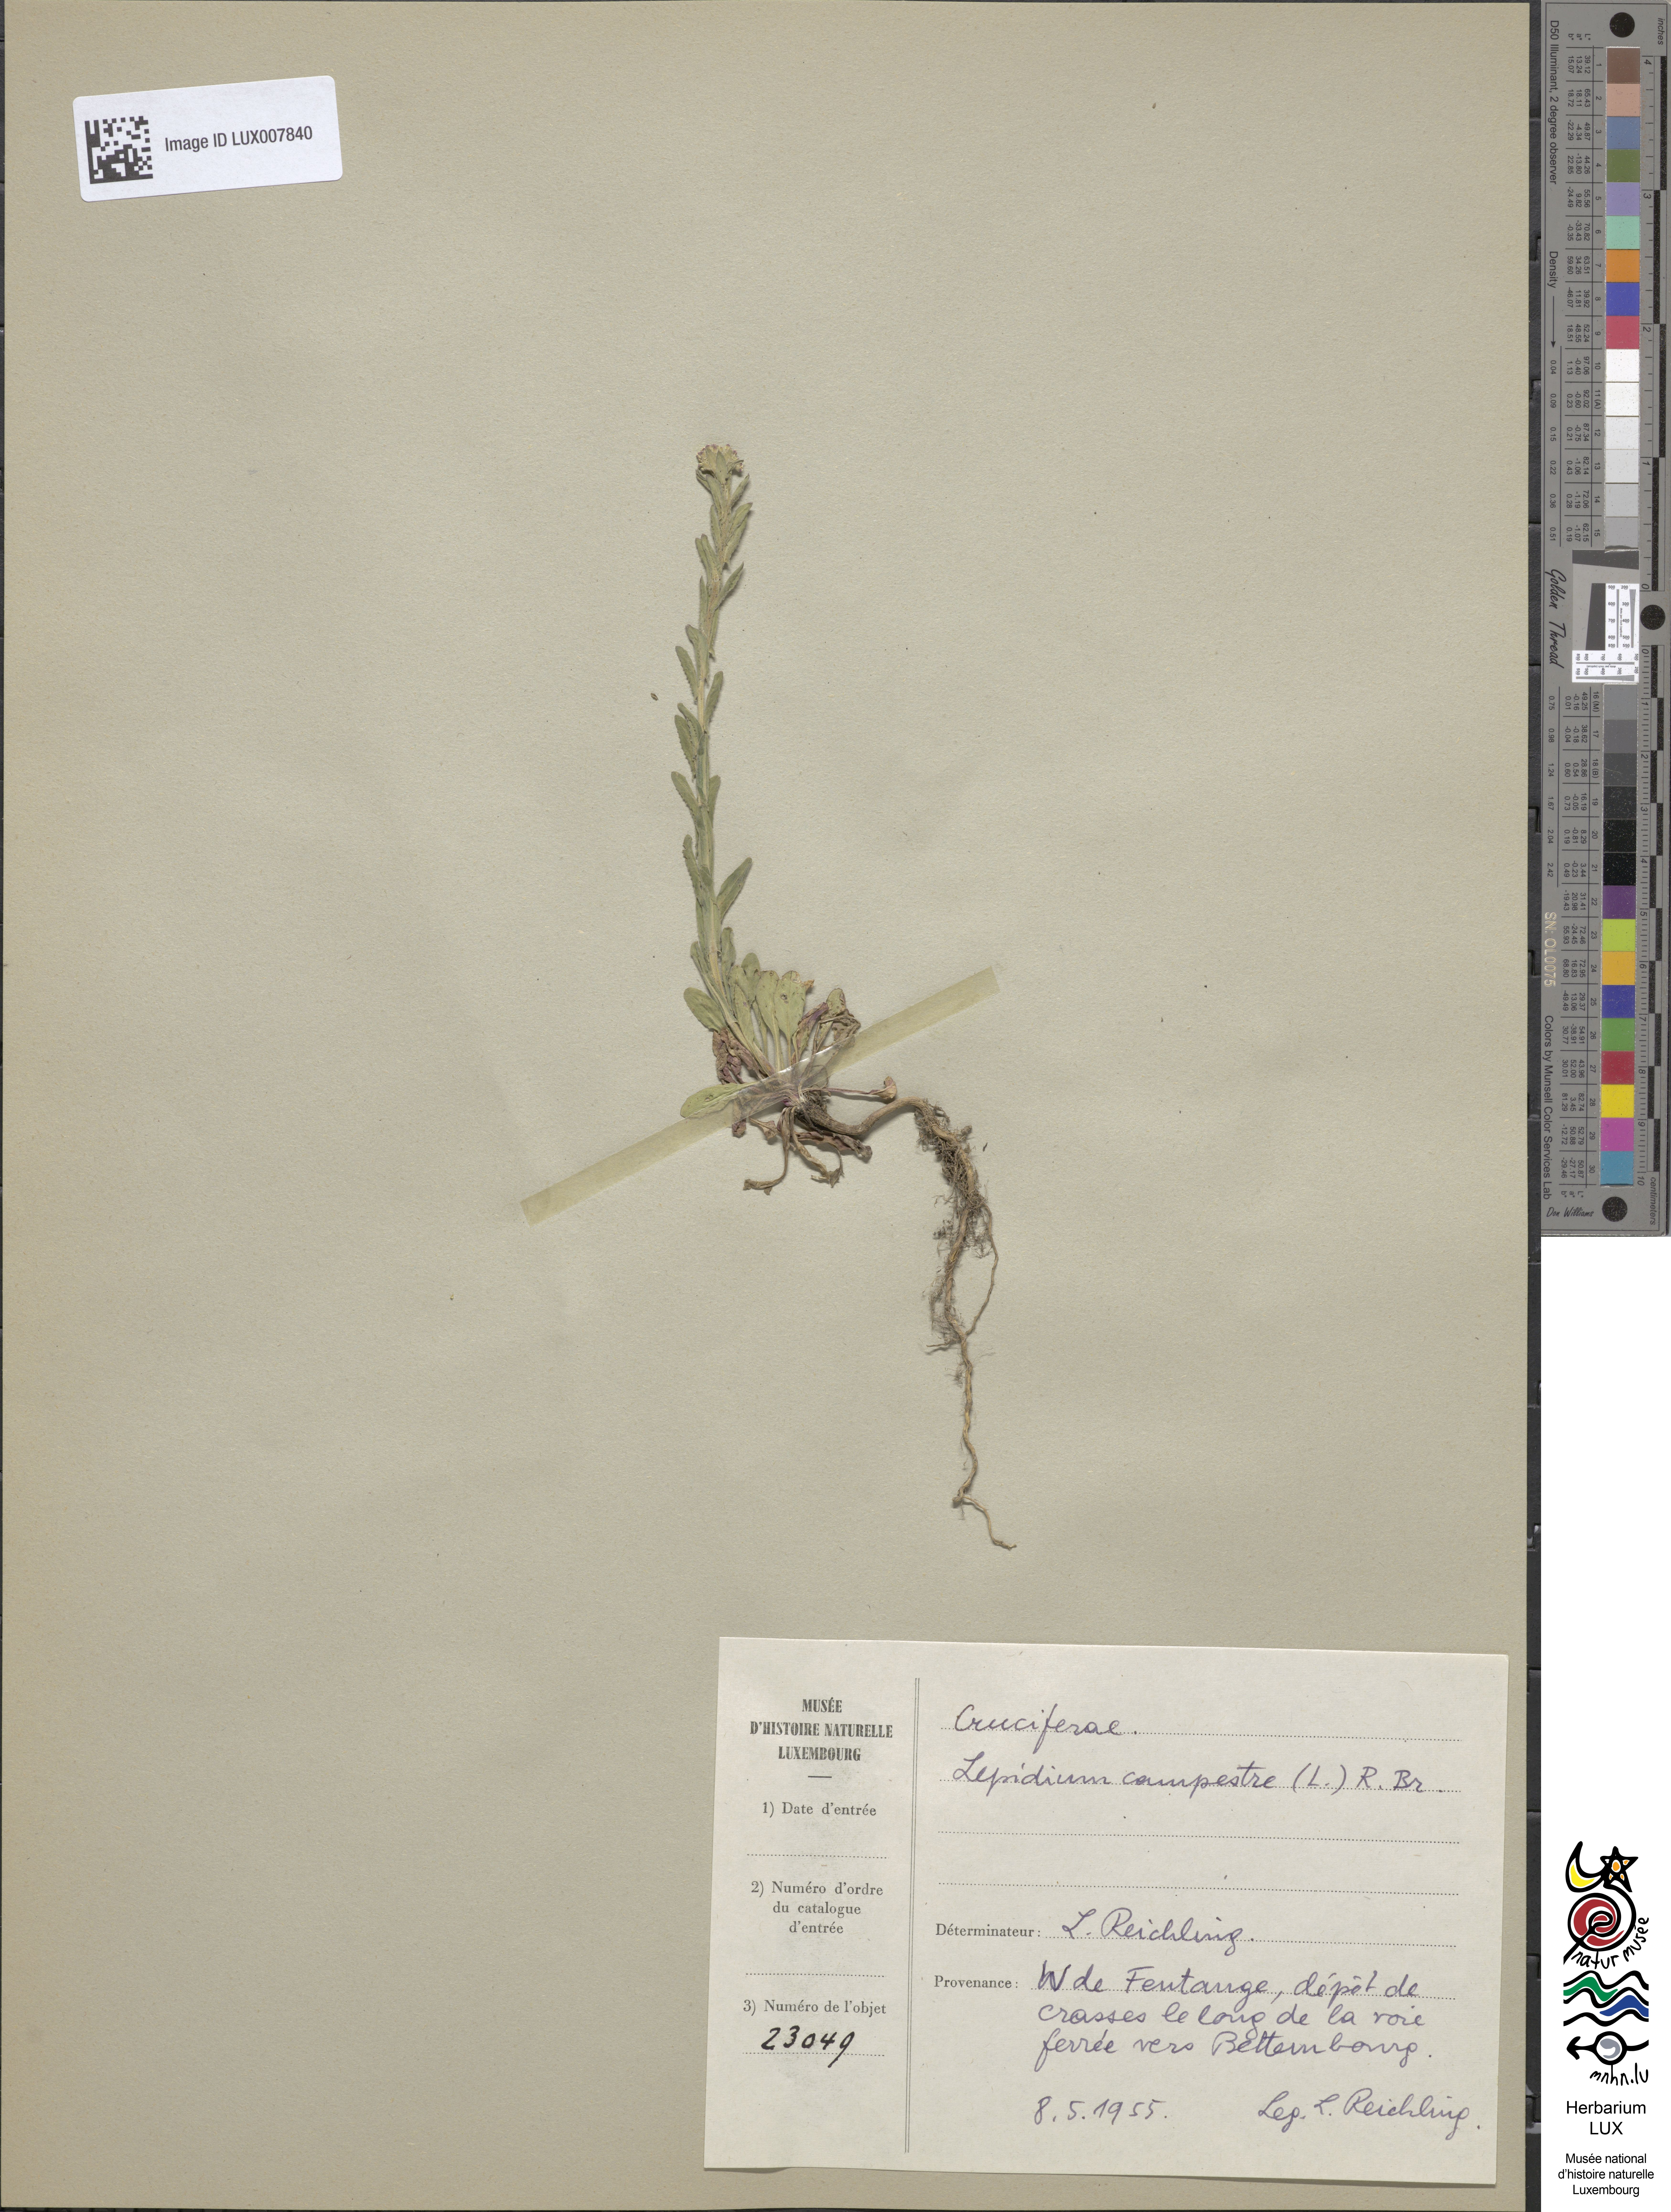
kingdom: Plantae
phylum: Tracheophyta
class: Magnoliopsida
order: Brassicales
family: Brassicaceae
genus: Lepidium
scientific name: Lepidium campestre
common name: Field pepperwort
